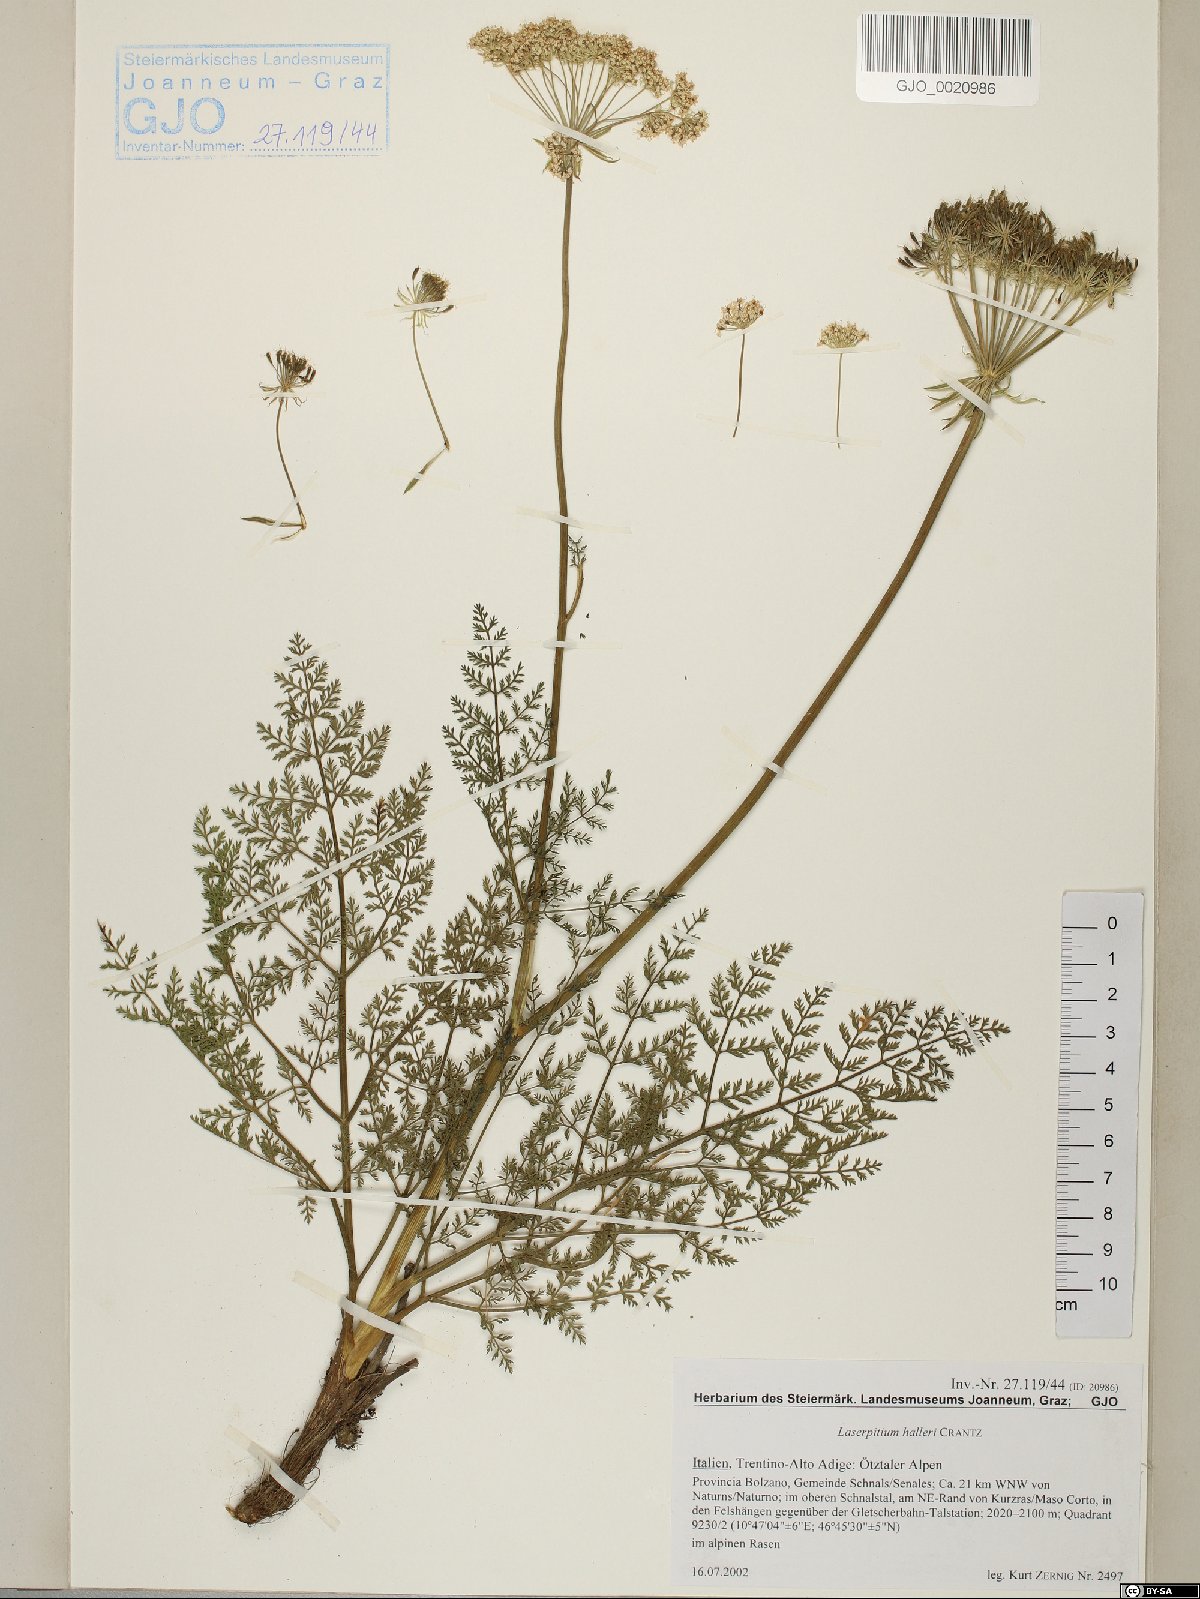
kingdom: Plantae
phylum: Tracheophyta
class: Magnoliopsida
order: Apiales
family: Apiaceae
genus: Laserpitium
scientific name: Laserpitium halleri
